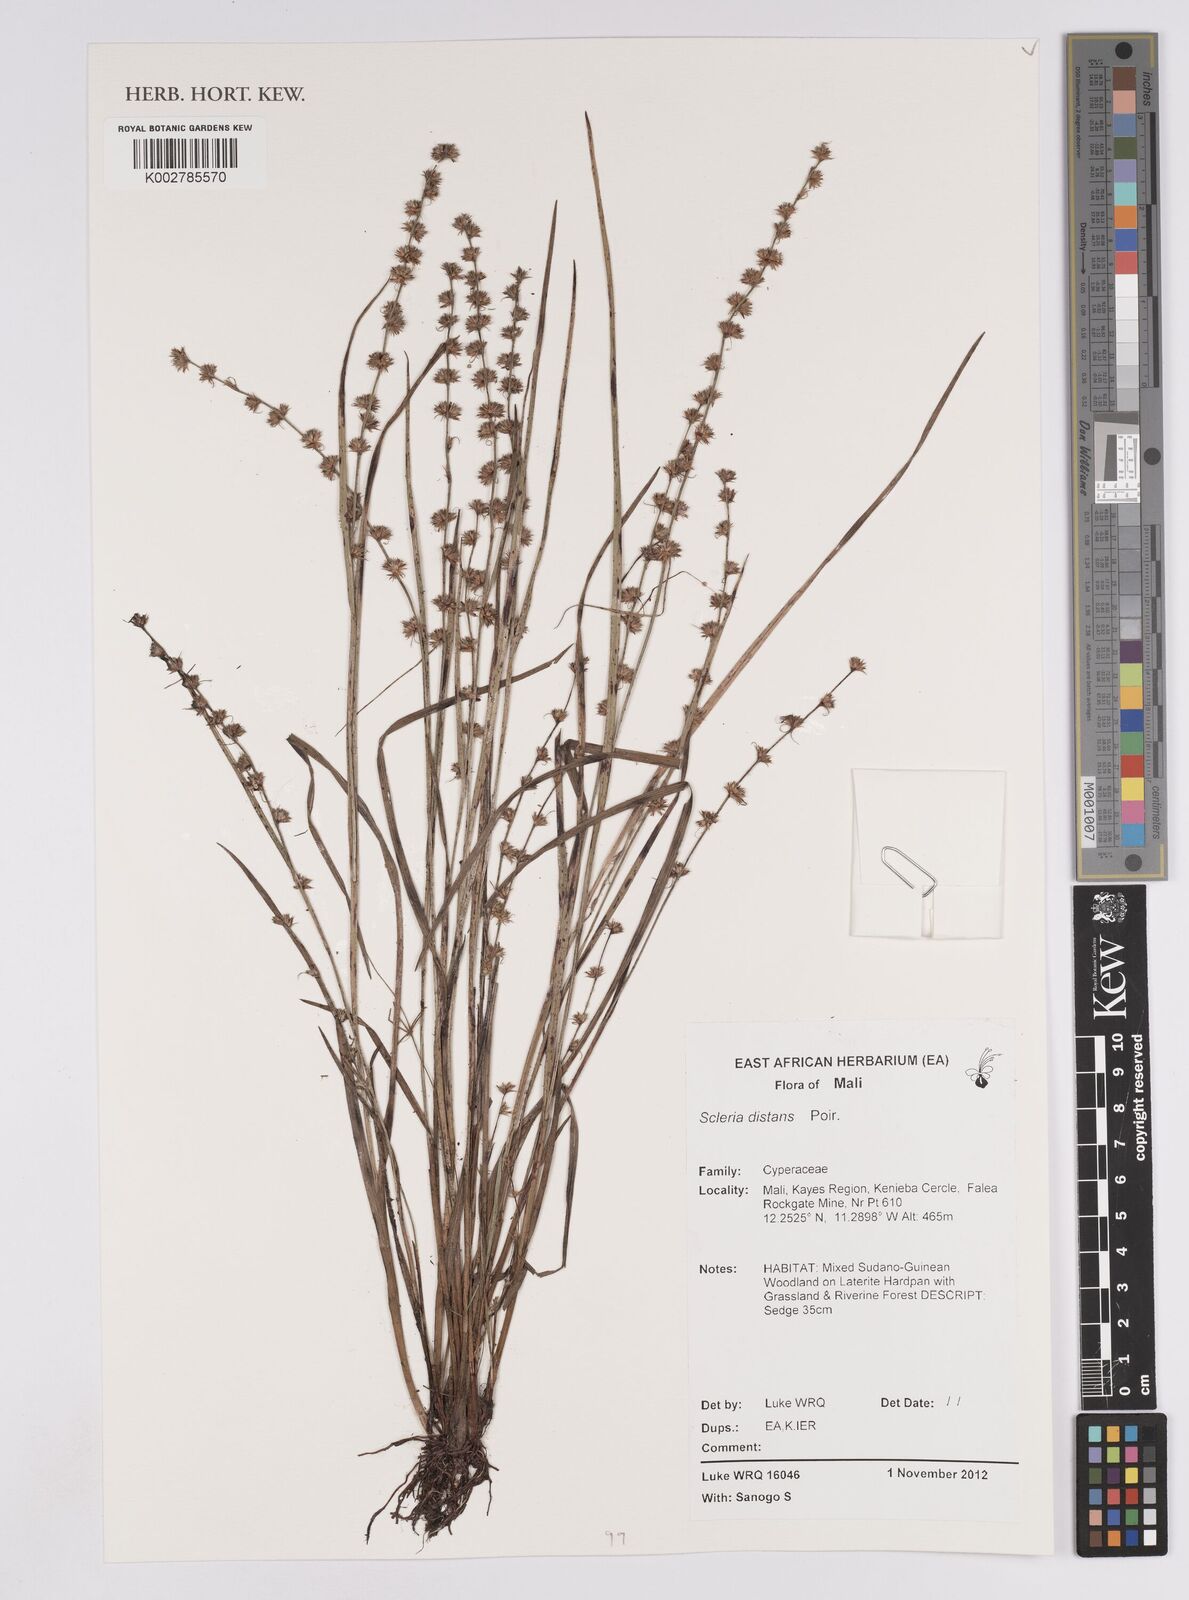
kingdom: Plantae
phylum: Tracheophyta
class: Liliopsida
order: Poales
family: Cyperaceae
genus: Scleria
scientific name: Scleria distans
